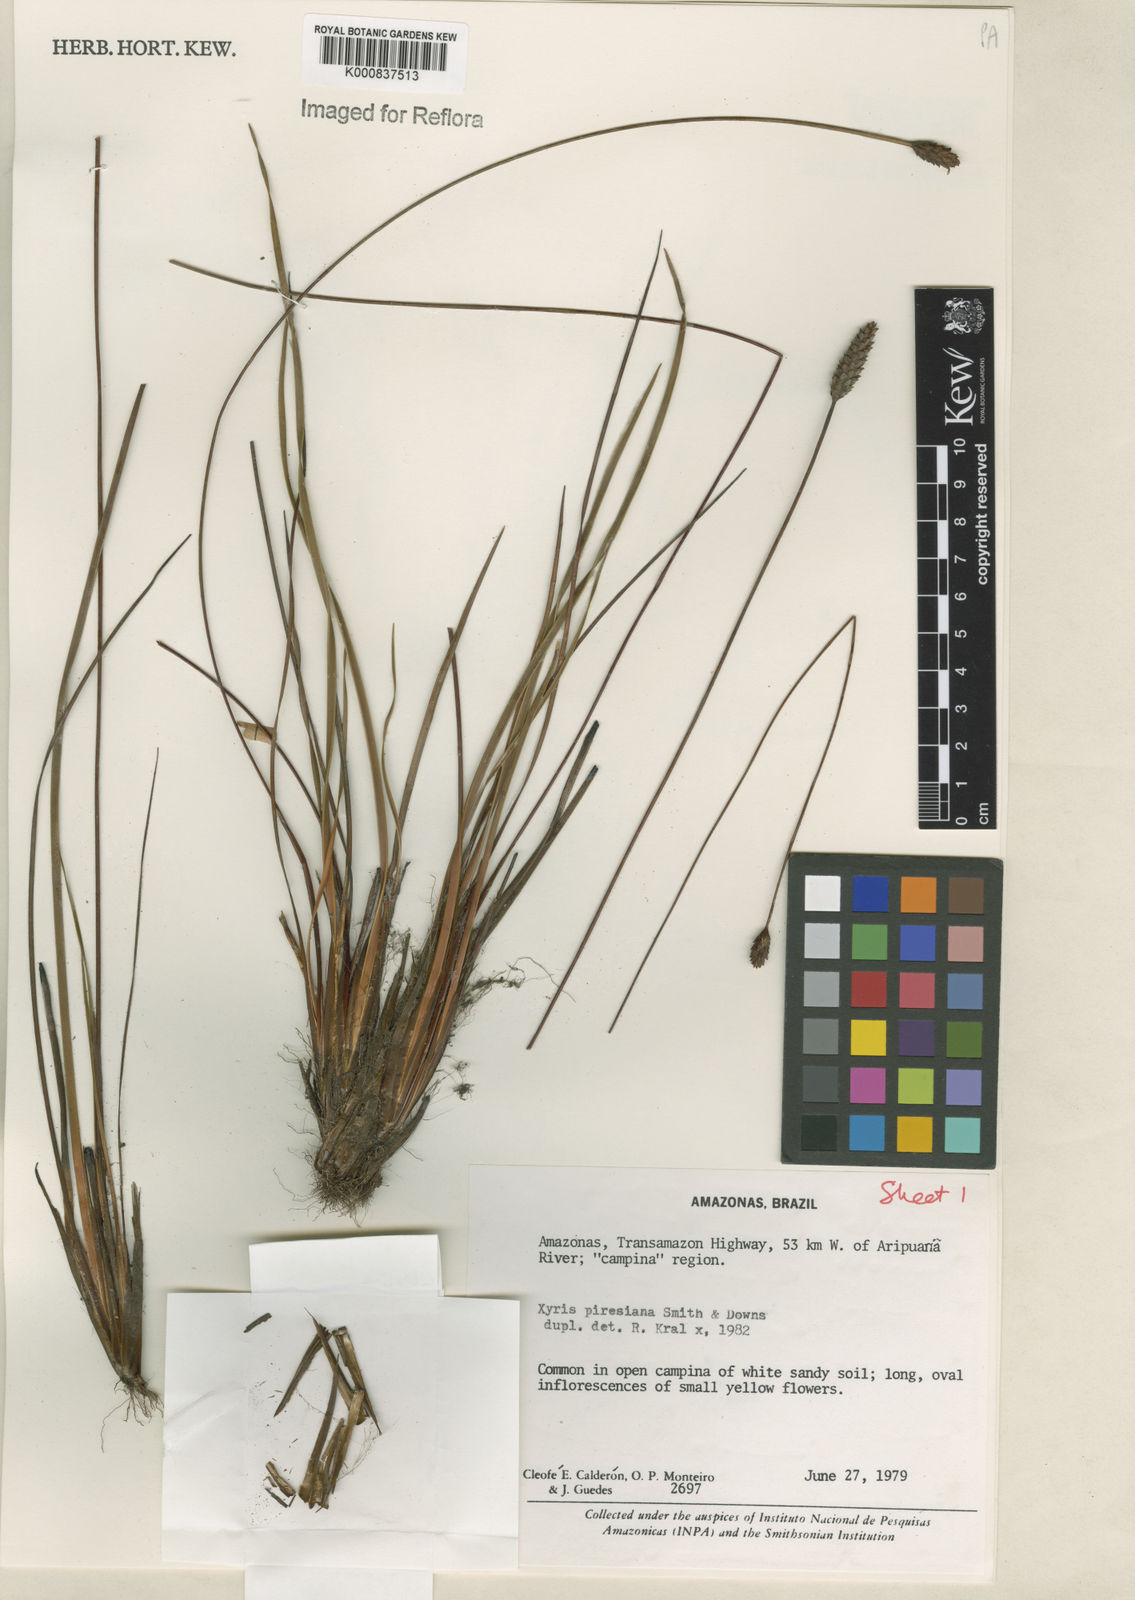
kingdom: Plantae
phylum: Tracheophyta
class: Liliopsida
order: Poales
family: Xyridaceae
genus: Xyris
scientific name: Xyris piresiana
